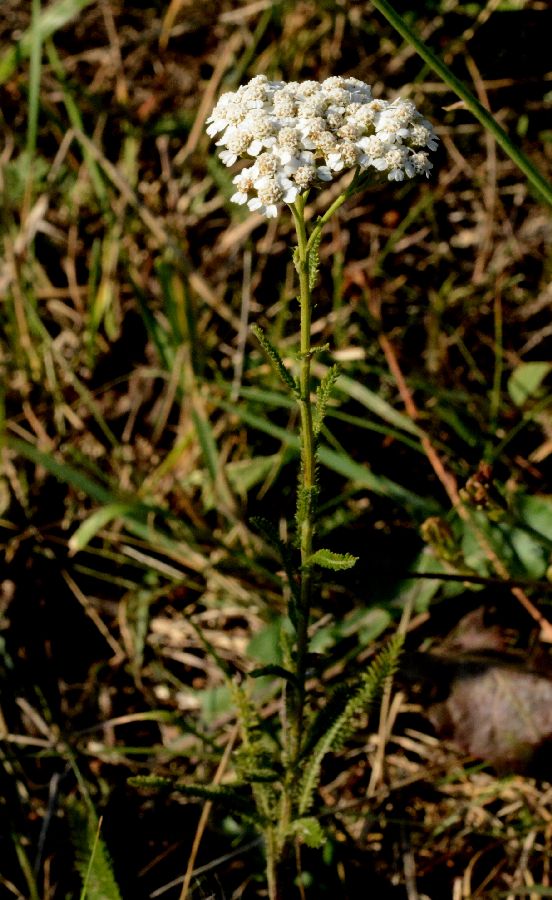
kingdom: Plantae
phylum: Tracheophyta
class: Magnoliopsida
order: Asterales
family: Asteraceae
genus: Achillea
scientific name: Achillea millefolium
